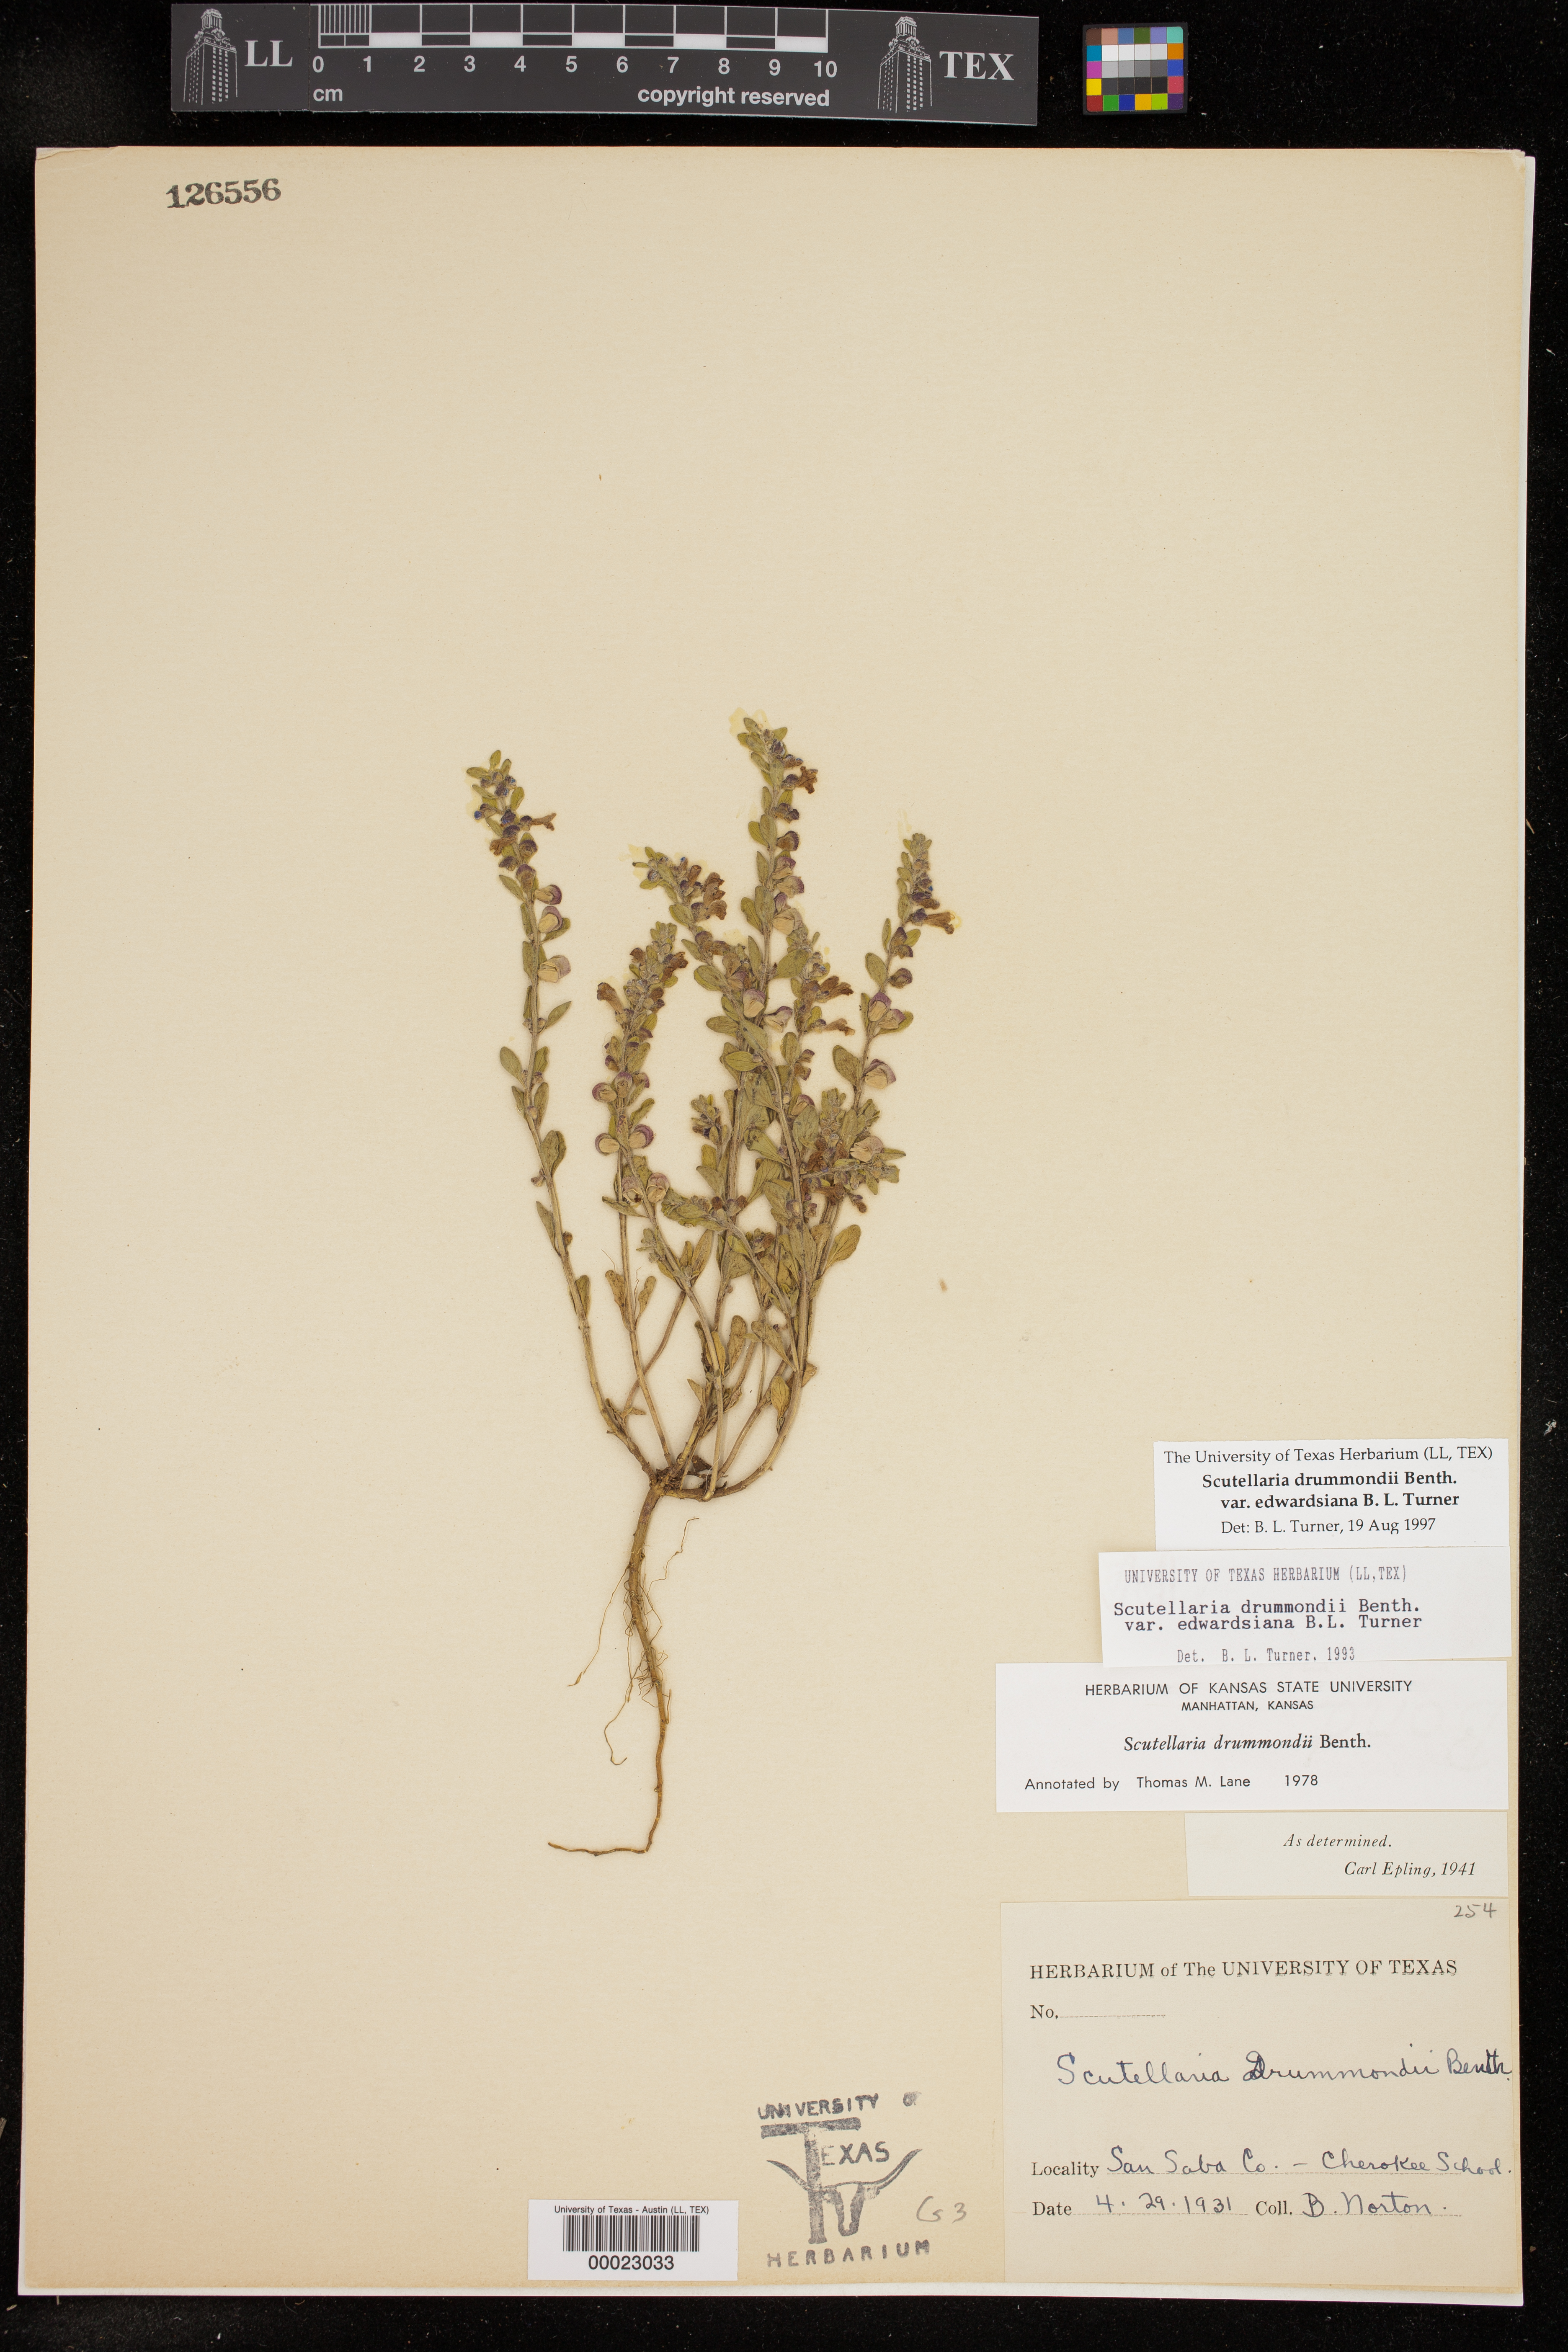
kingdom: Plantae
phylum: Tracheophyta
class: Magnoliopsida
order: Lamiales
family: Lamiaceae
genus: Scutellaria
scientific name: Scutellaria drummondii
